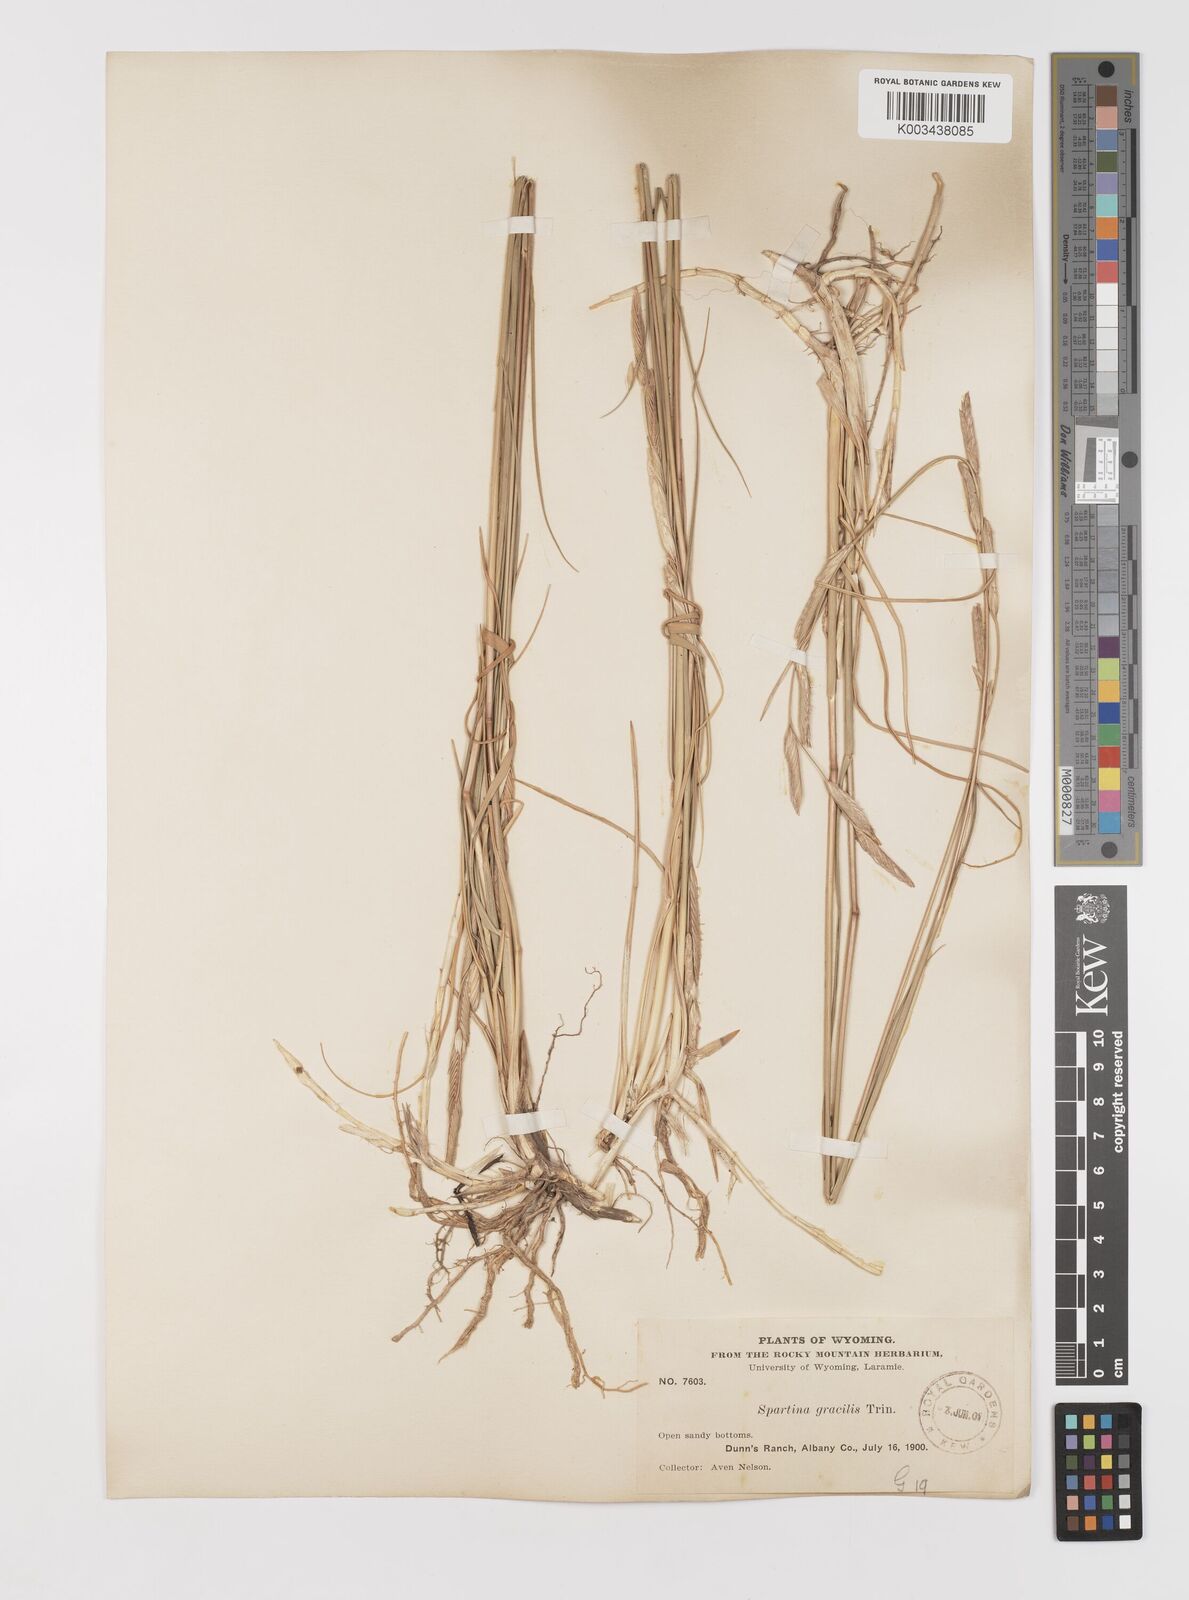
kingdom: Plantae
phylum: Tracheophyta
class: Liliopsida
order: Poales
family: Poaceae
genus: Sporobolus
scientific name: Sporobolus hookerianus
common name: Alkali cordgrass
